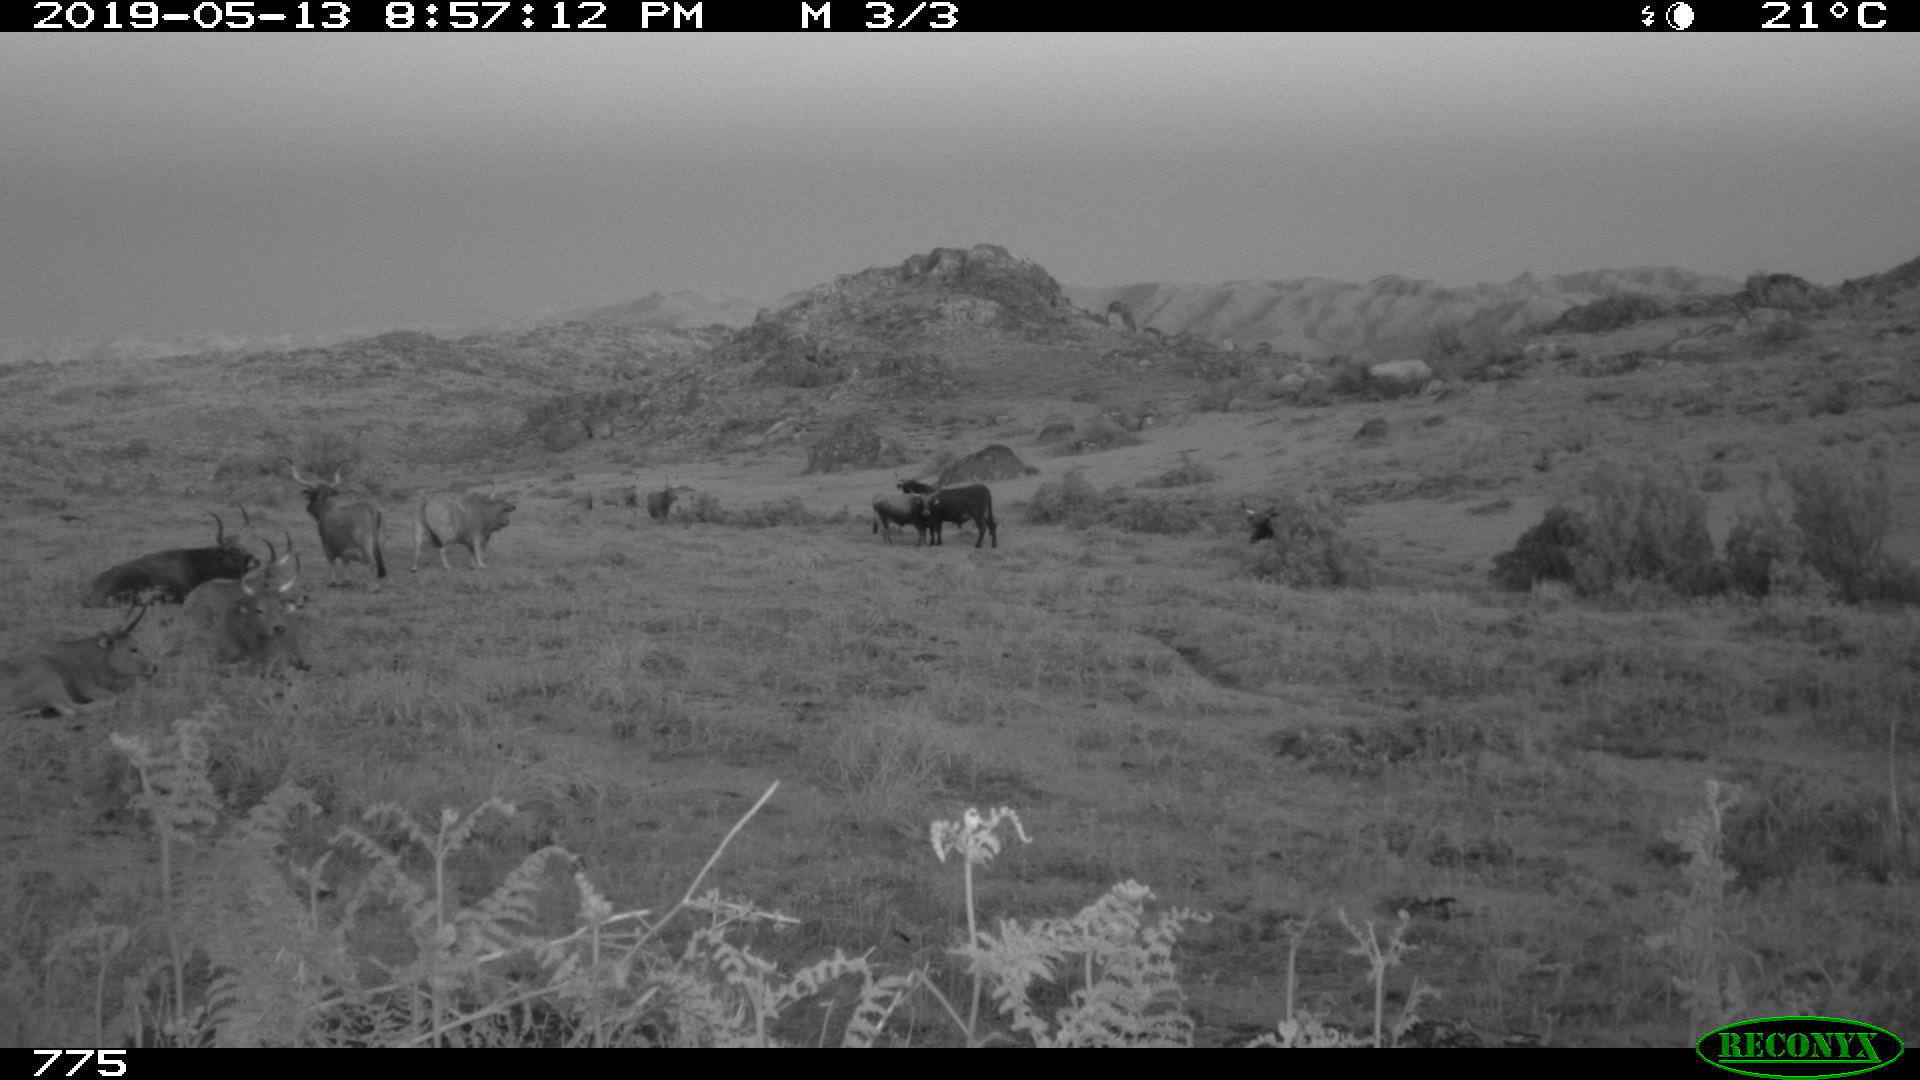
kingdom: Animalia
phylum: Chordata
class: Mammalia
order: Artiodactyla
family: Bovidae
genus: Bos
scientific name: Bos taurus
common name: Domesticated cattle
